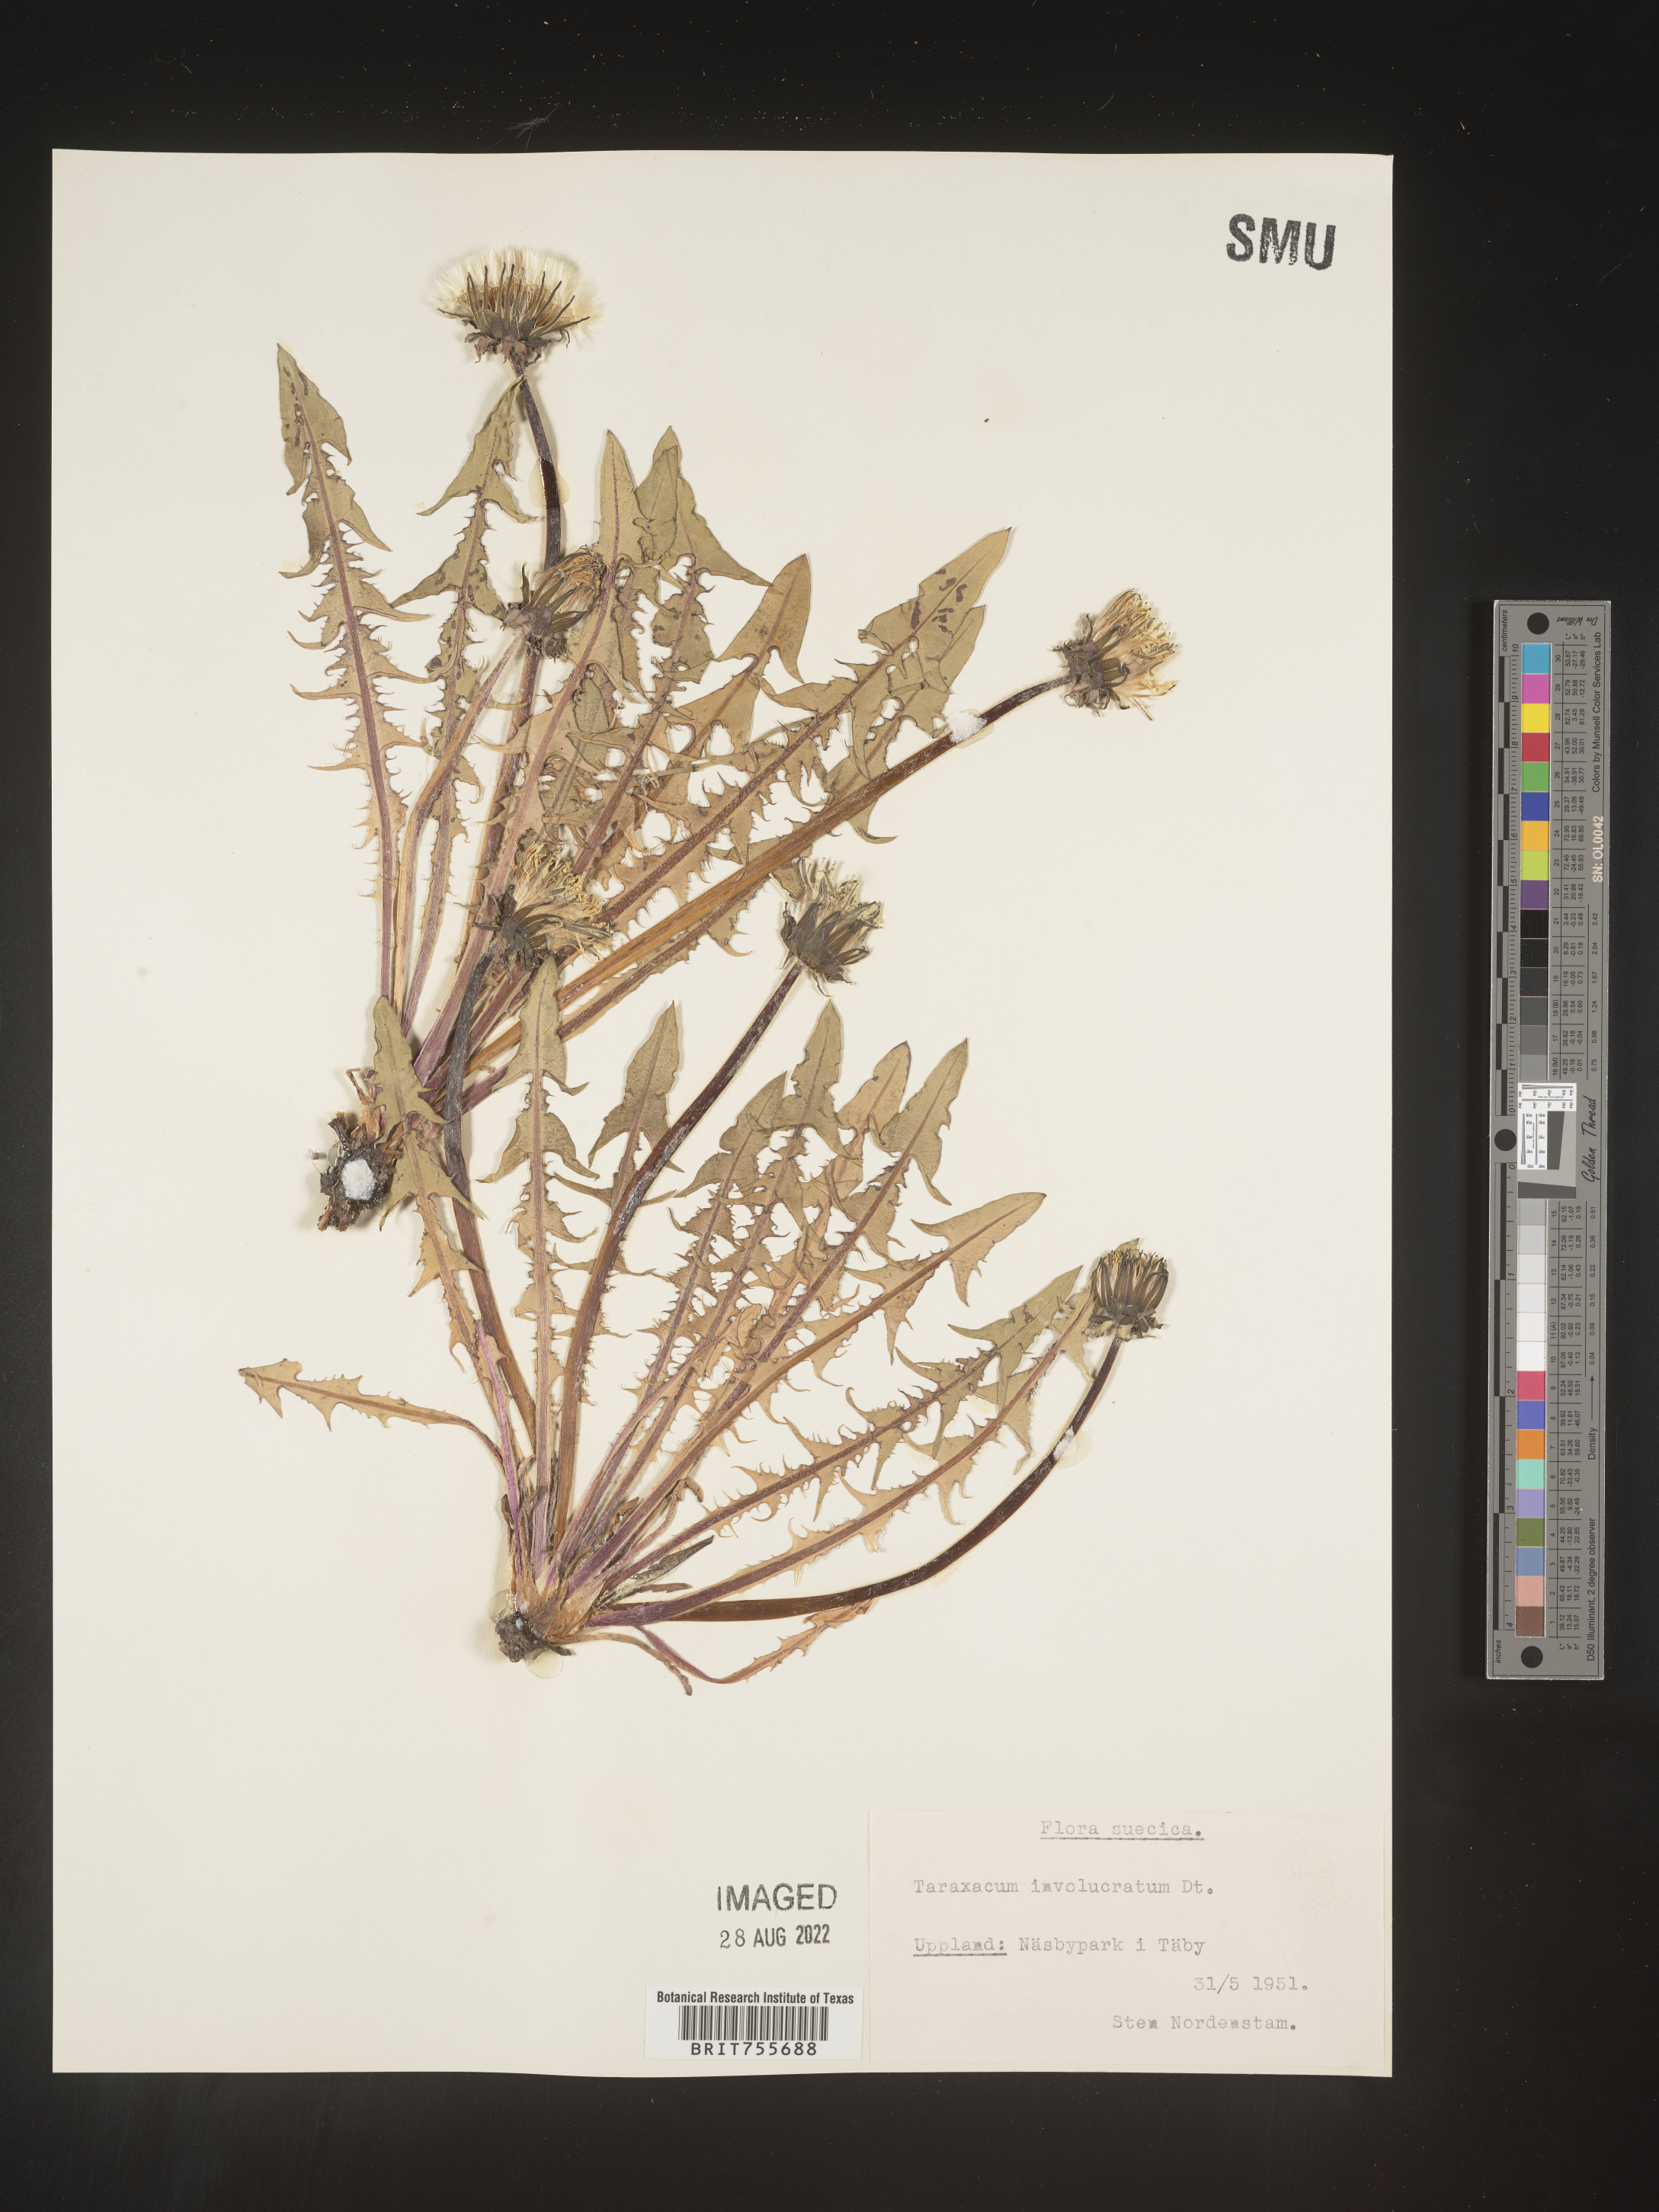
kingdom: Plantae
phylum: Tracheophyta
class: Magnoliopsida
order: Asterales
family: Asteraceae
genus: Taraxacum
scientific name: Taraxacum
